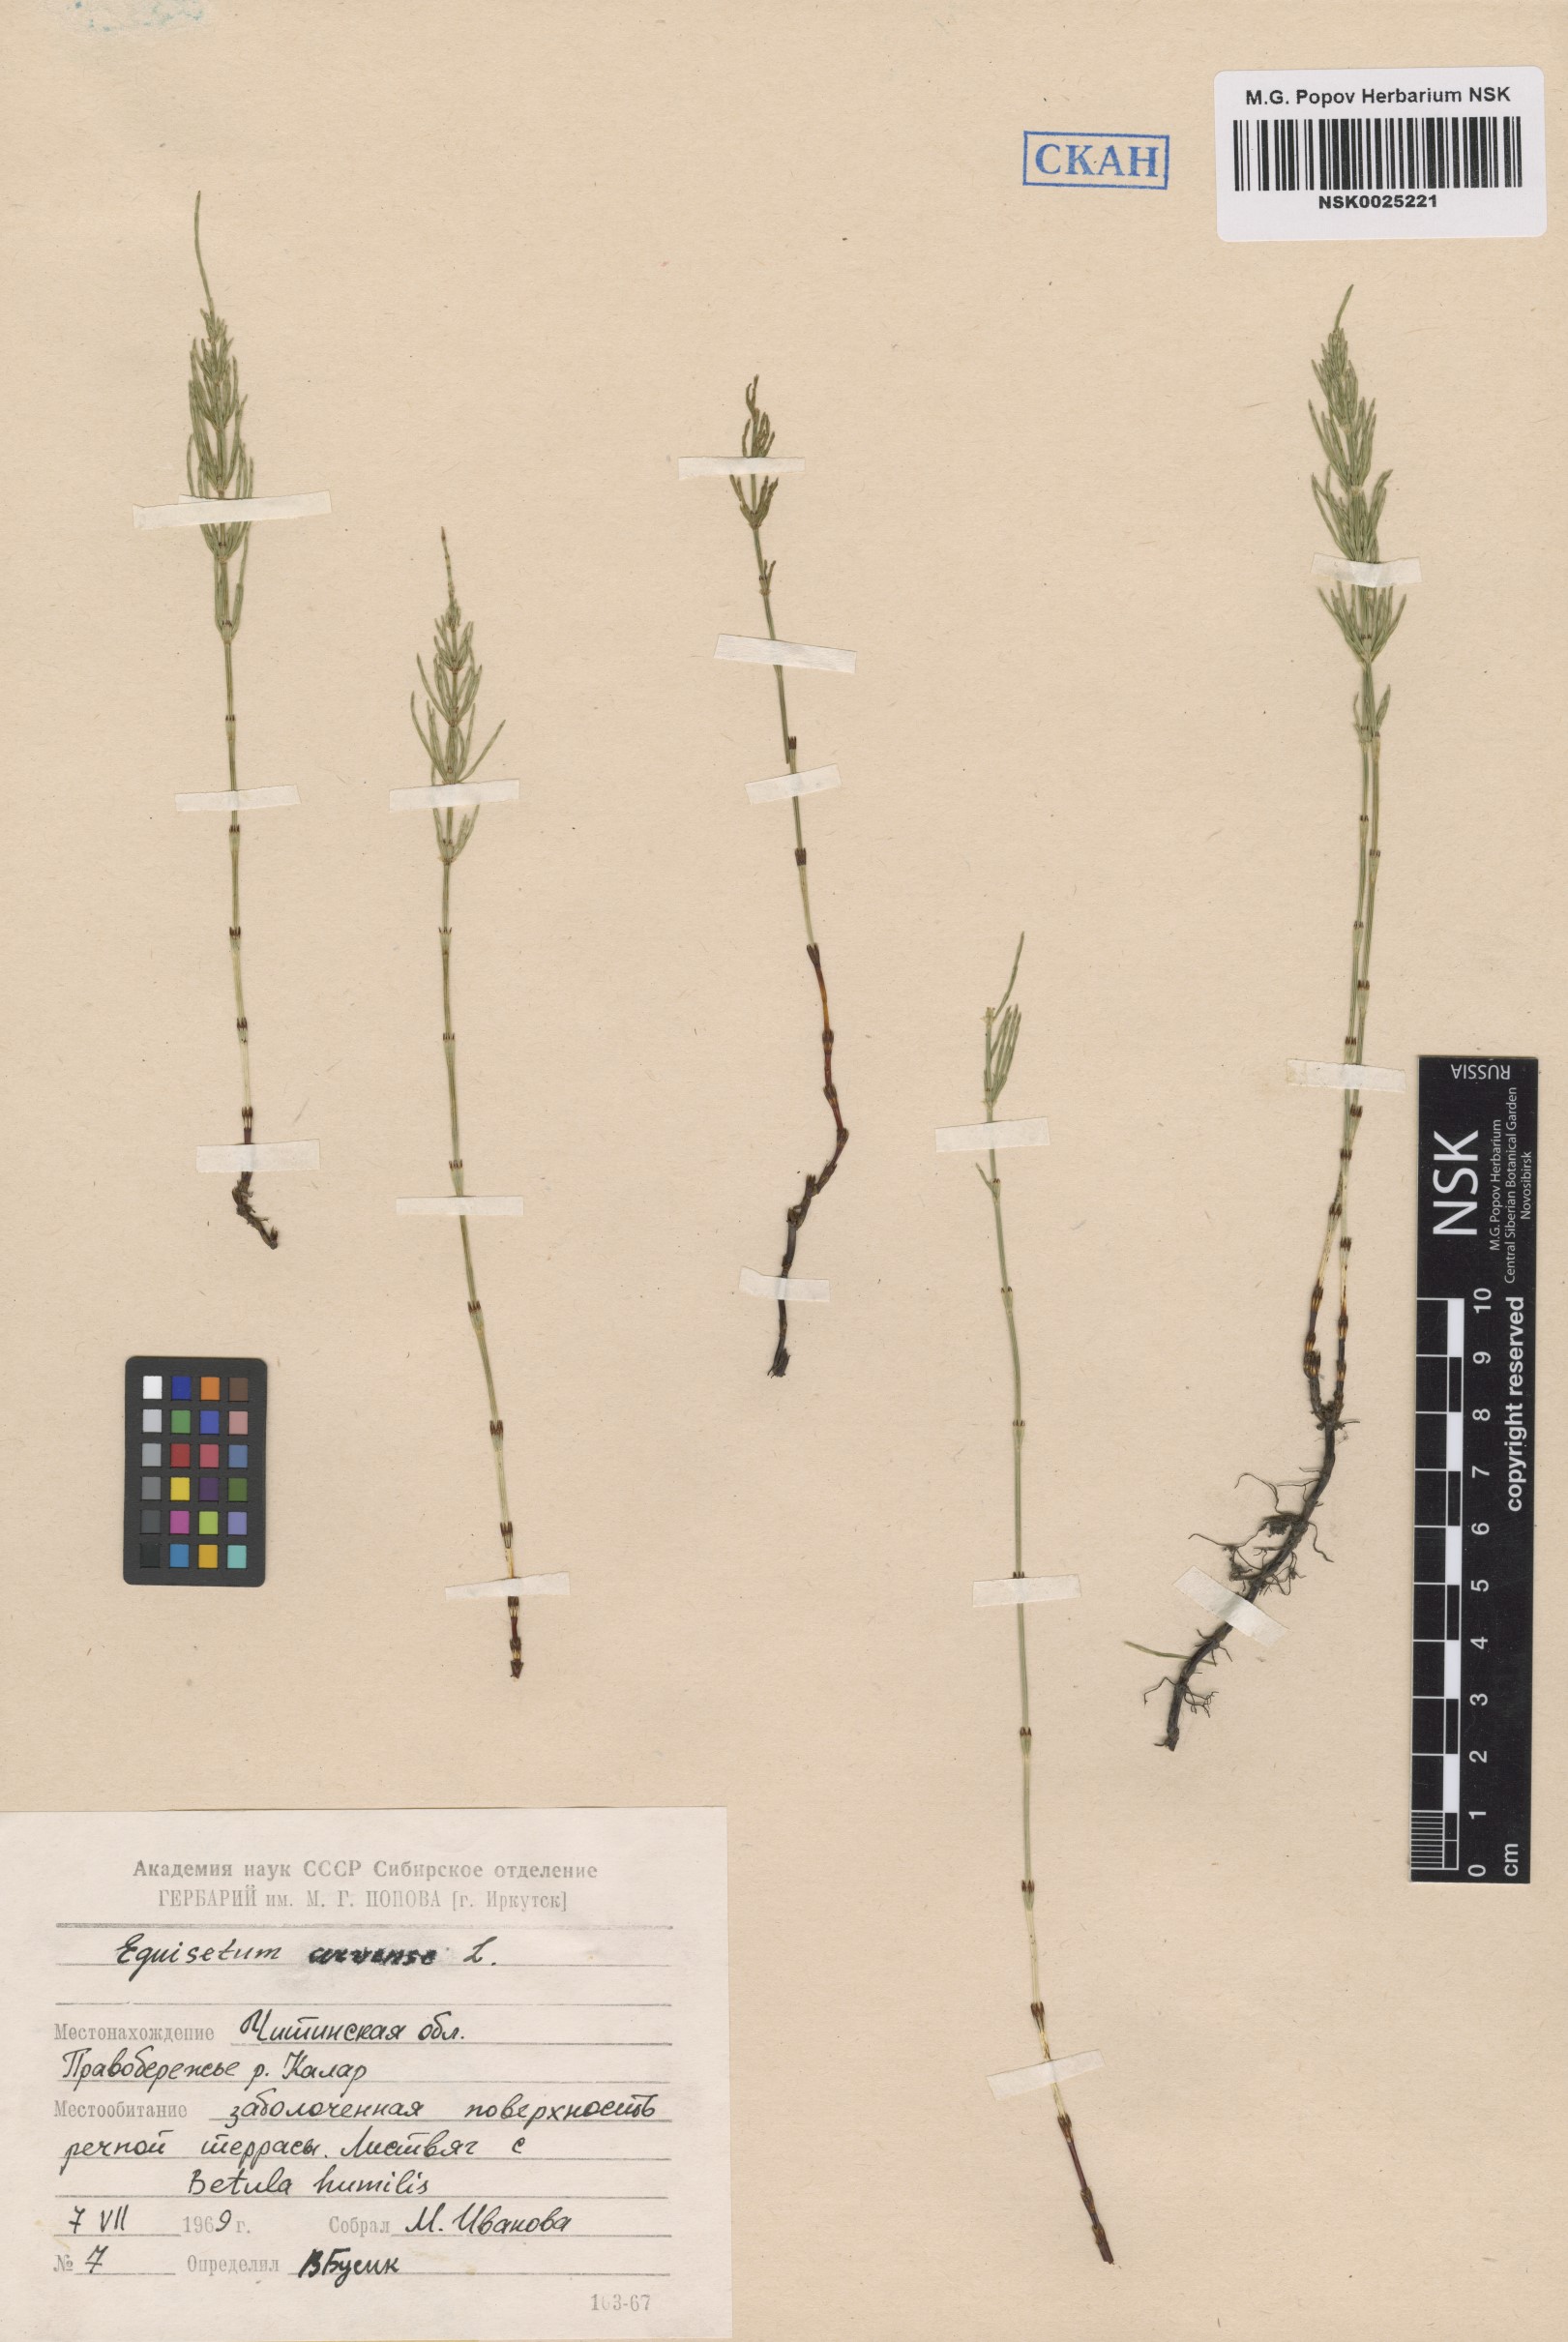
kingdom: Plantae
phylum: Tracheophyta
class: Polypodiopsida
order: Equisetales
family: Equisetaceae
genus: Equisetum
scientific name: Equisetum arvense
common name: Field horsetail
